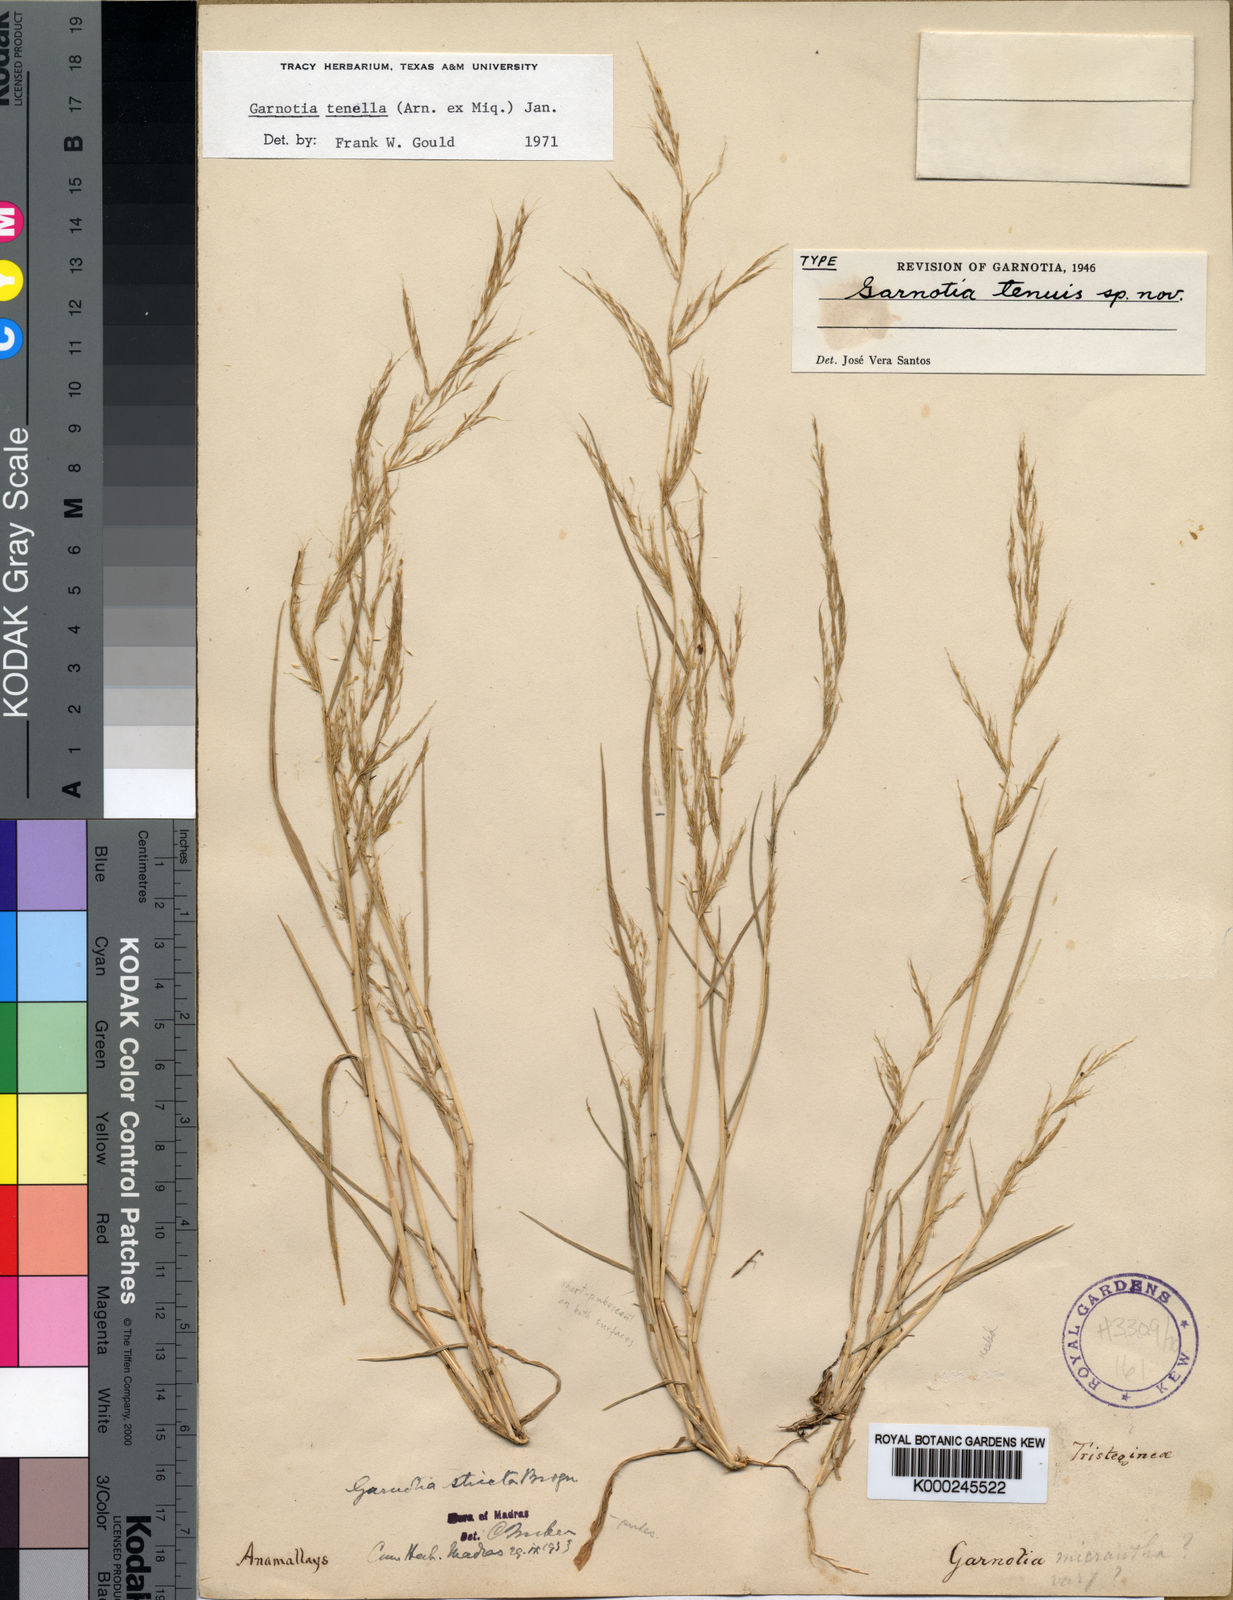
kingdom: Plantae
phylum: Tracheophyta
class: Liliopsida
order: Poales
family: Poaceae
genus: Garnotia
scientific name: Garnotia tenella
